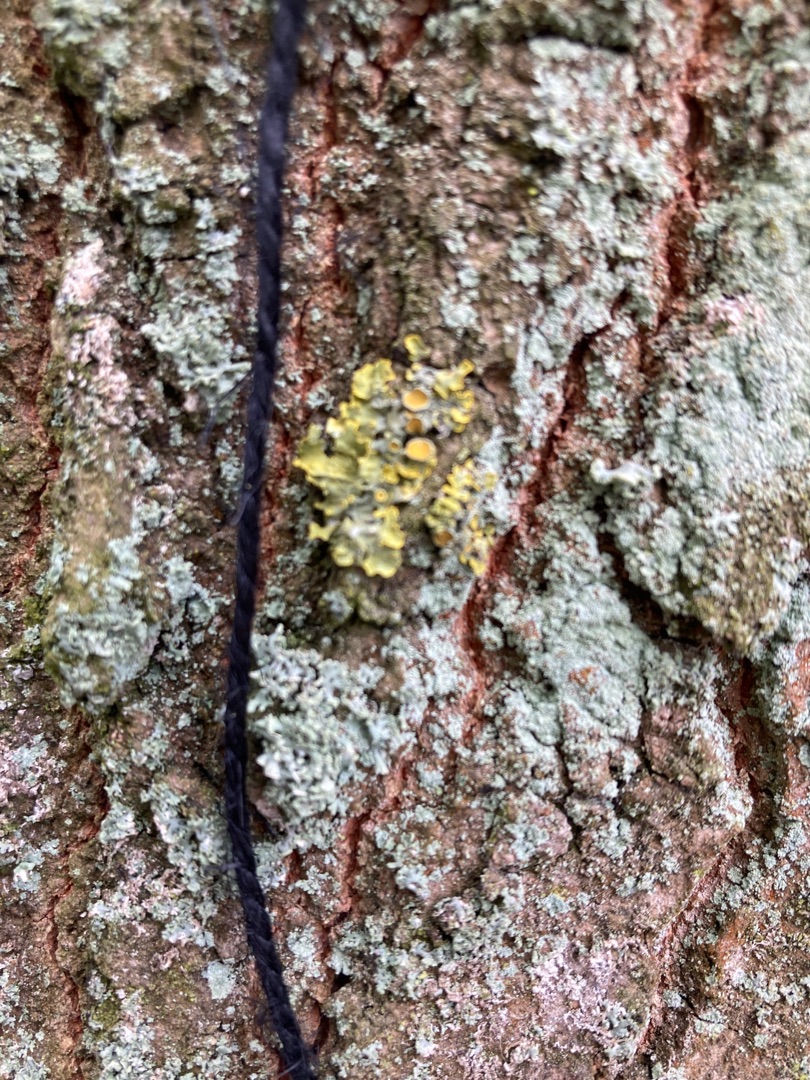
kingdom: Fungi
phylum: Ascomycota
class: Lecanoromycetes
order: Teloschistales
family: Teloschistaceae
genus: Xanthoria
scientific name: Xanthoria parietina
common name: Almindelig væggelav
